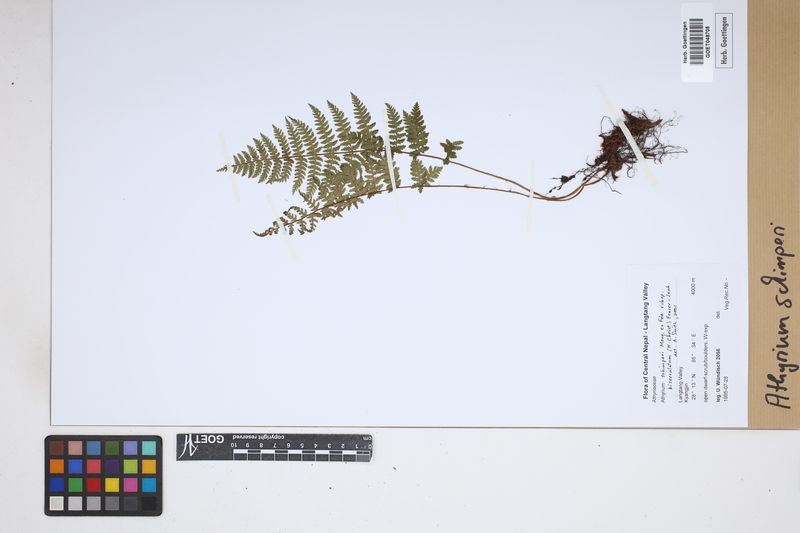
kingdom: Plantae
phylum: Tracheophyta
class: Polypodiopsida
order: Polypodiales
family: Athyriaceae
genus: Athyrium
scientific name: Athyrium schimperi
